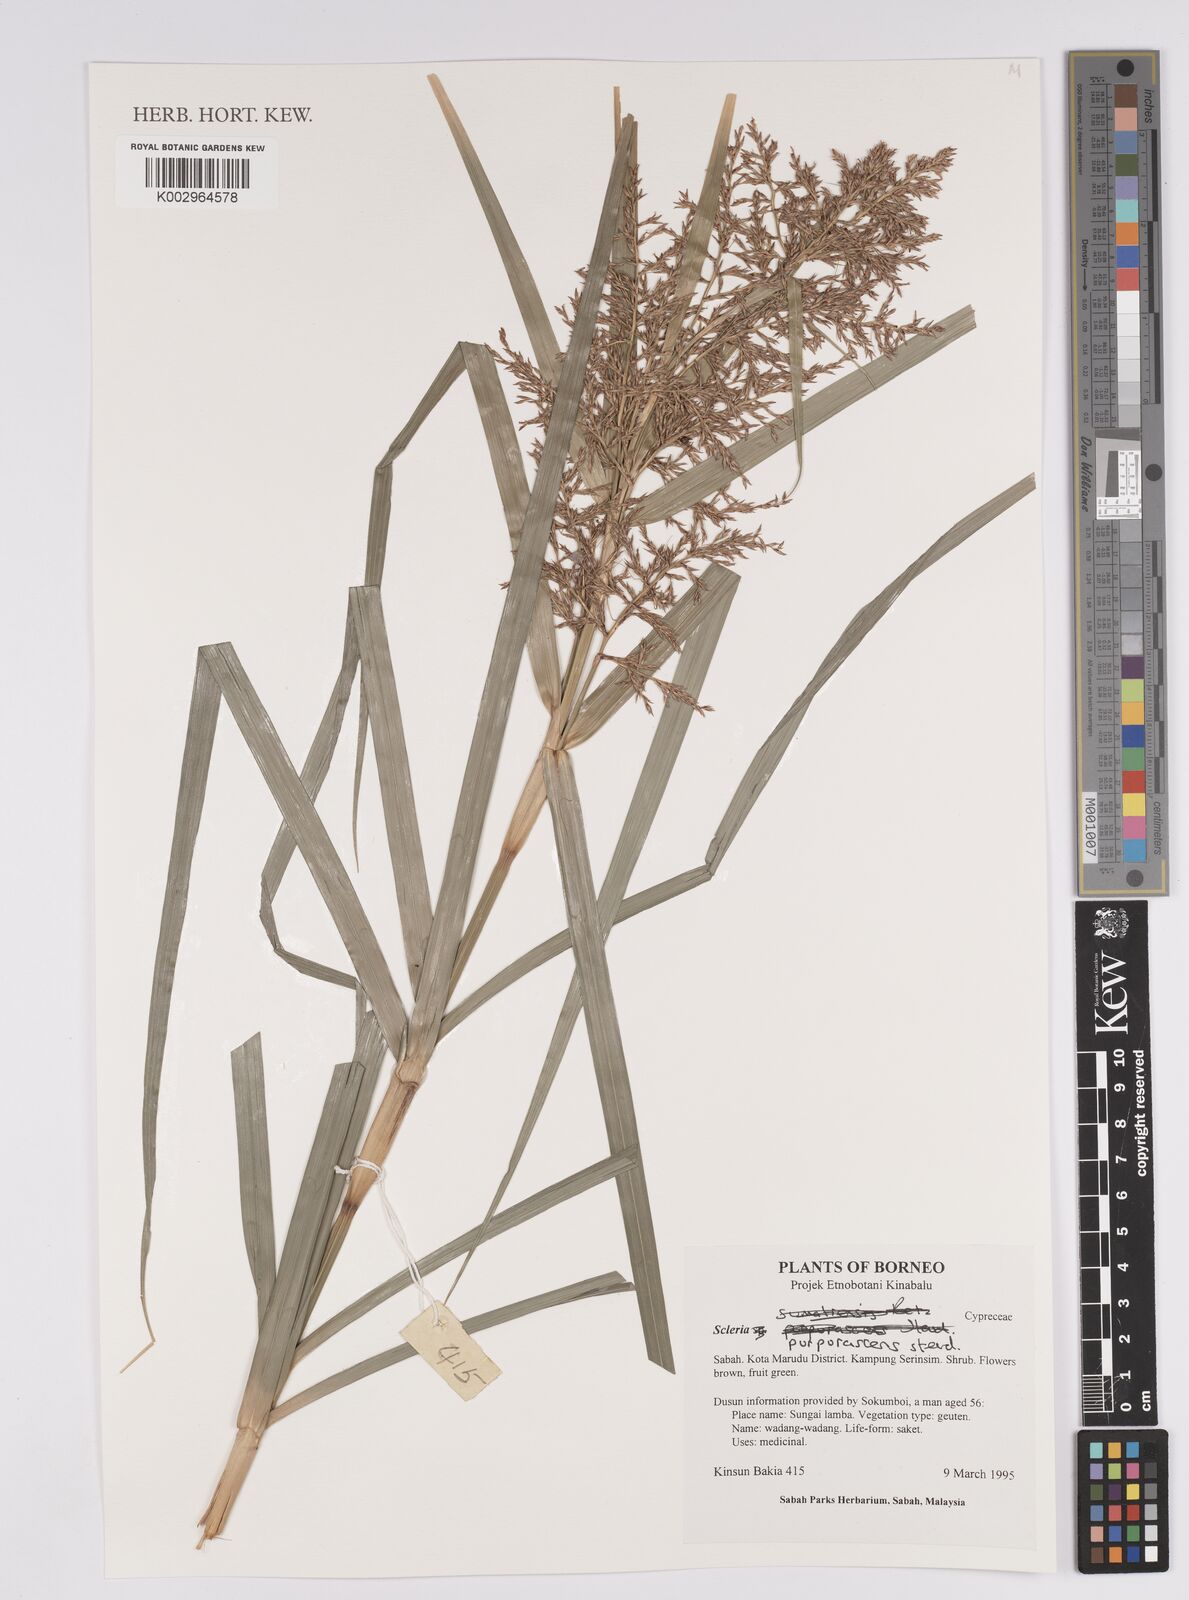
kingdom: Plantae
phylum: Tracheophyta
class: Liliopsida
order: Poales
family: Cyperaceae
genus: Scleria
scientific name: Scleria purpurascens
